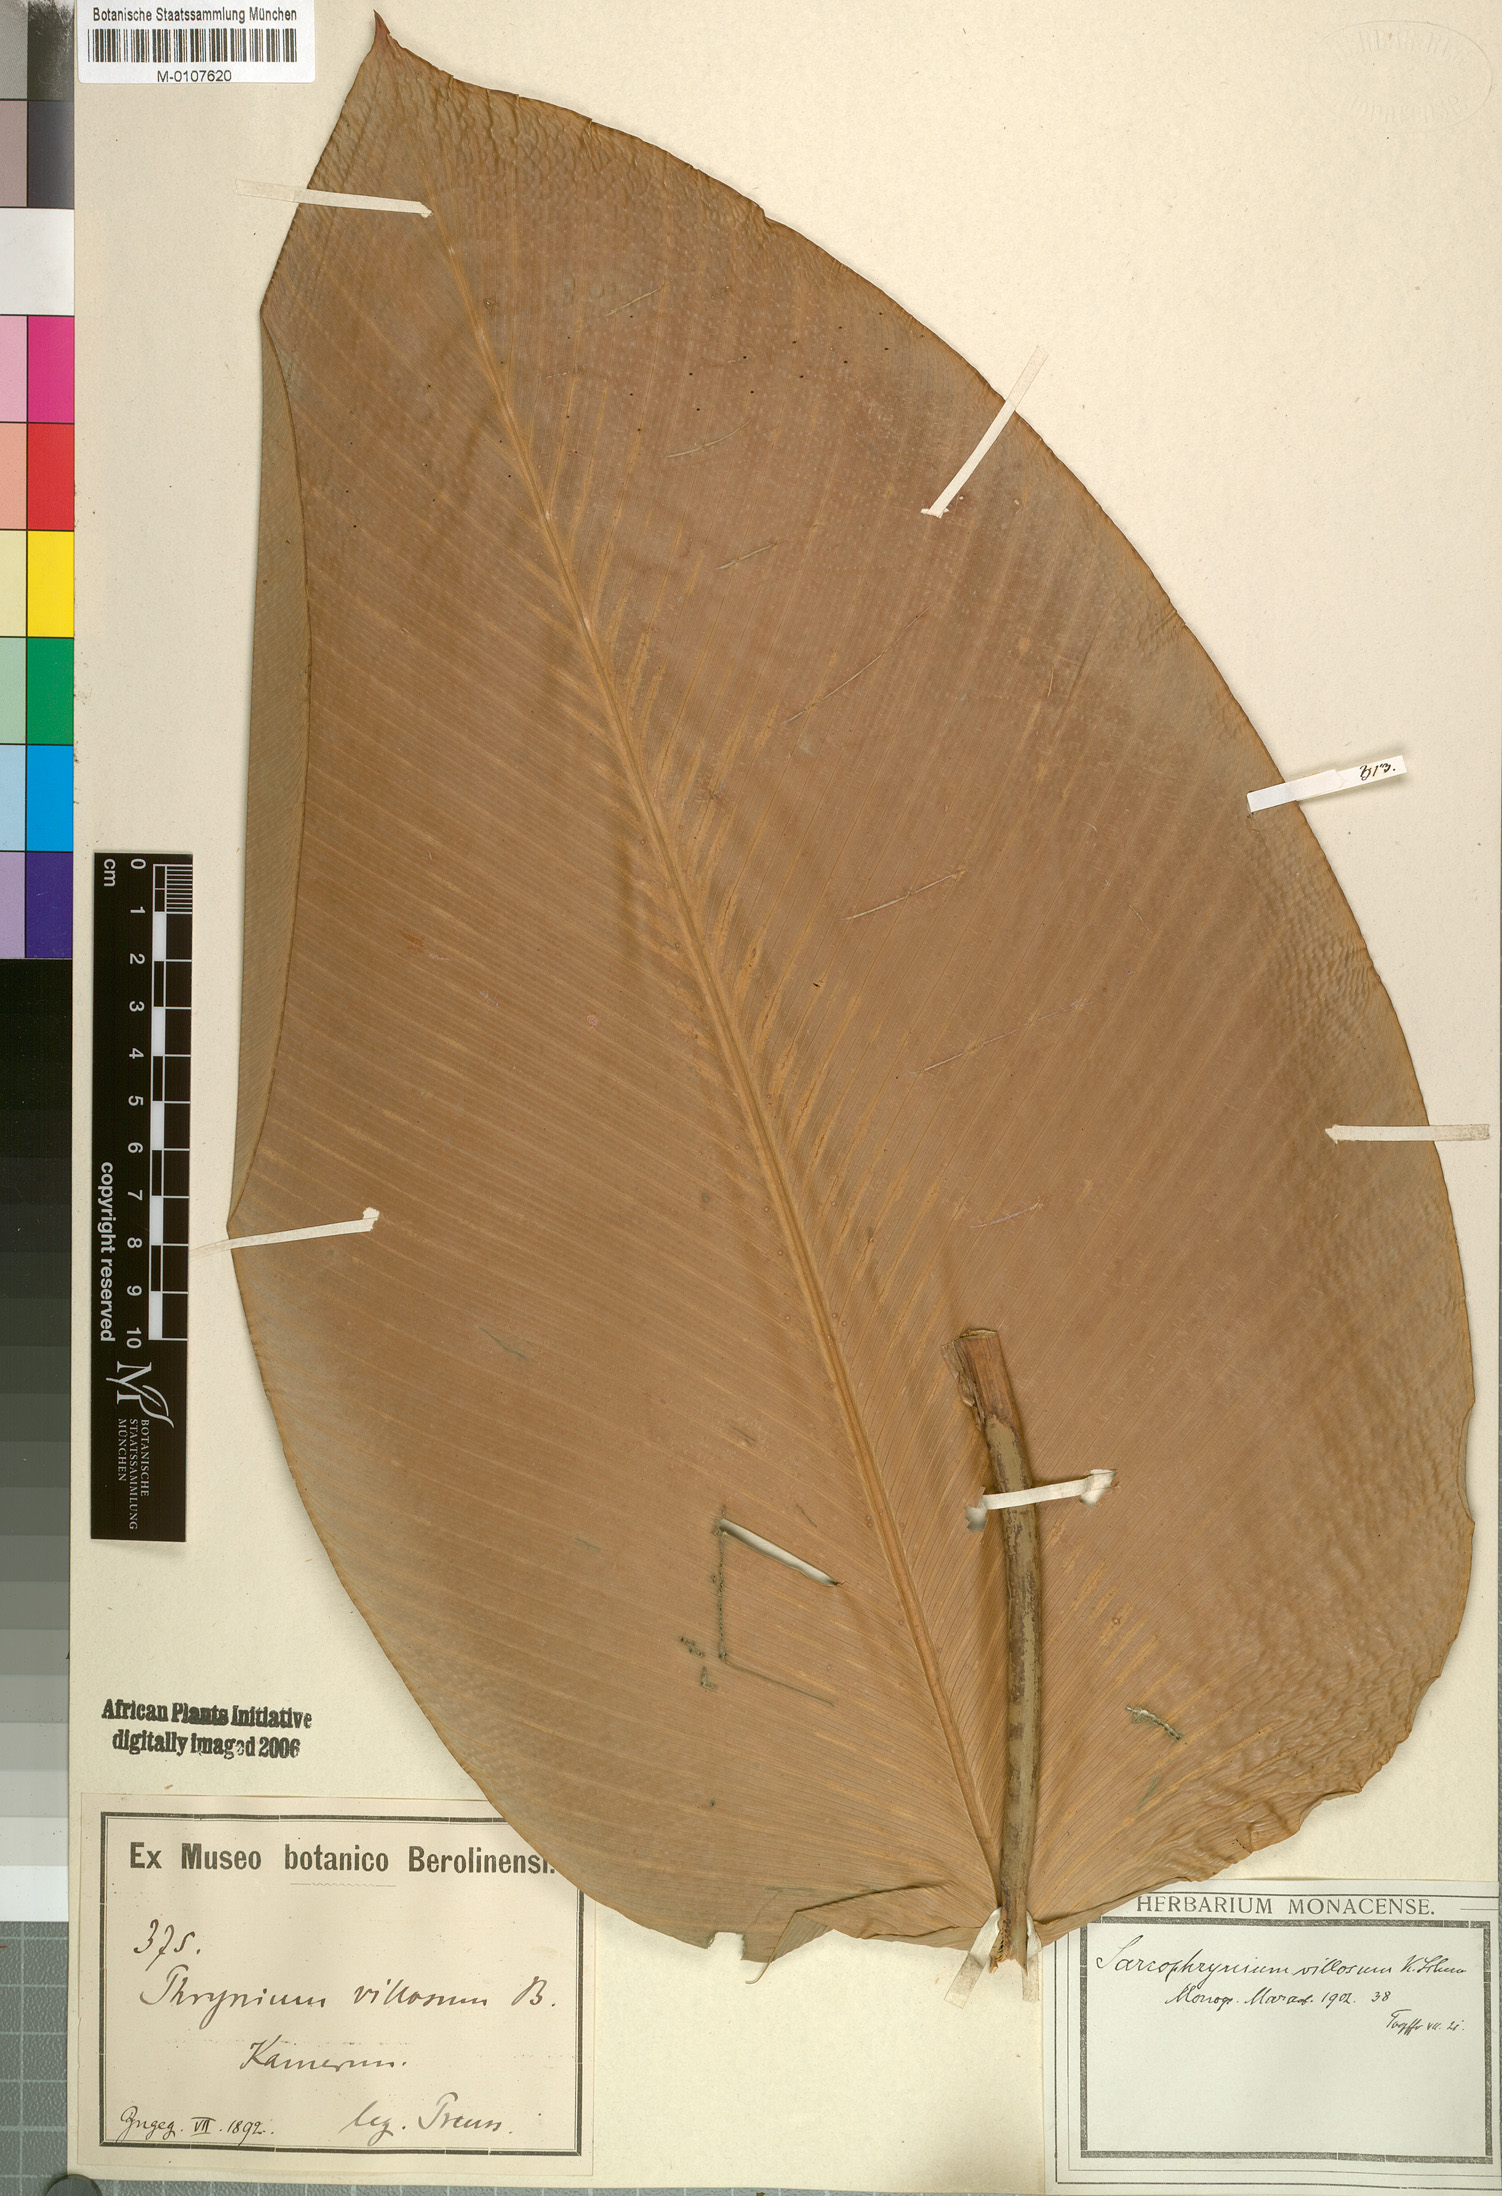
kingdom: Plantae
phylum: Tracheophyta
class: Liliopsida
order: Zingiberales
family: Marantaceae
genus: Sarcophrynium
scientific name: Sarcophrynium villosum
